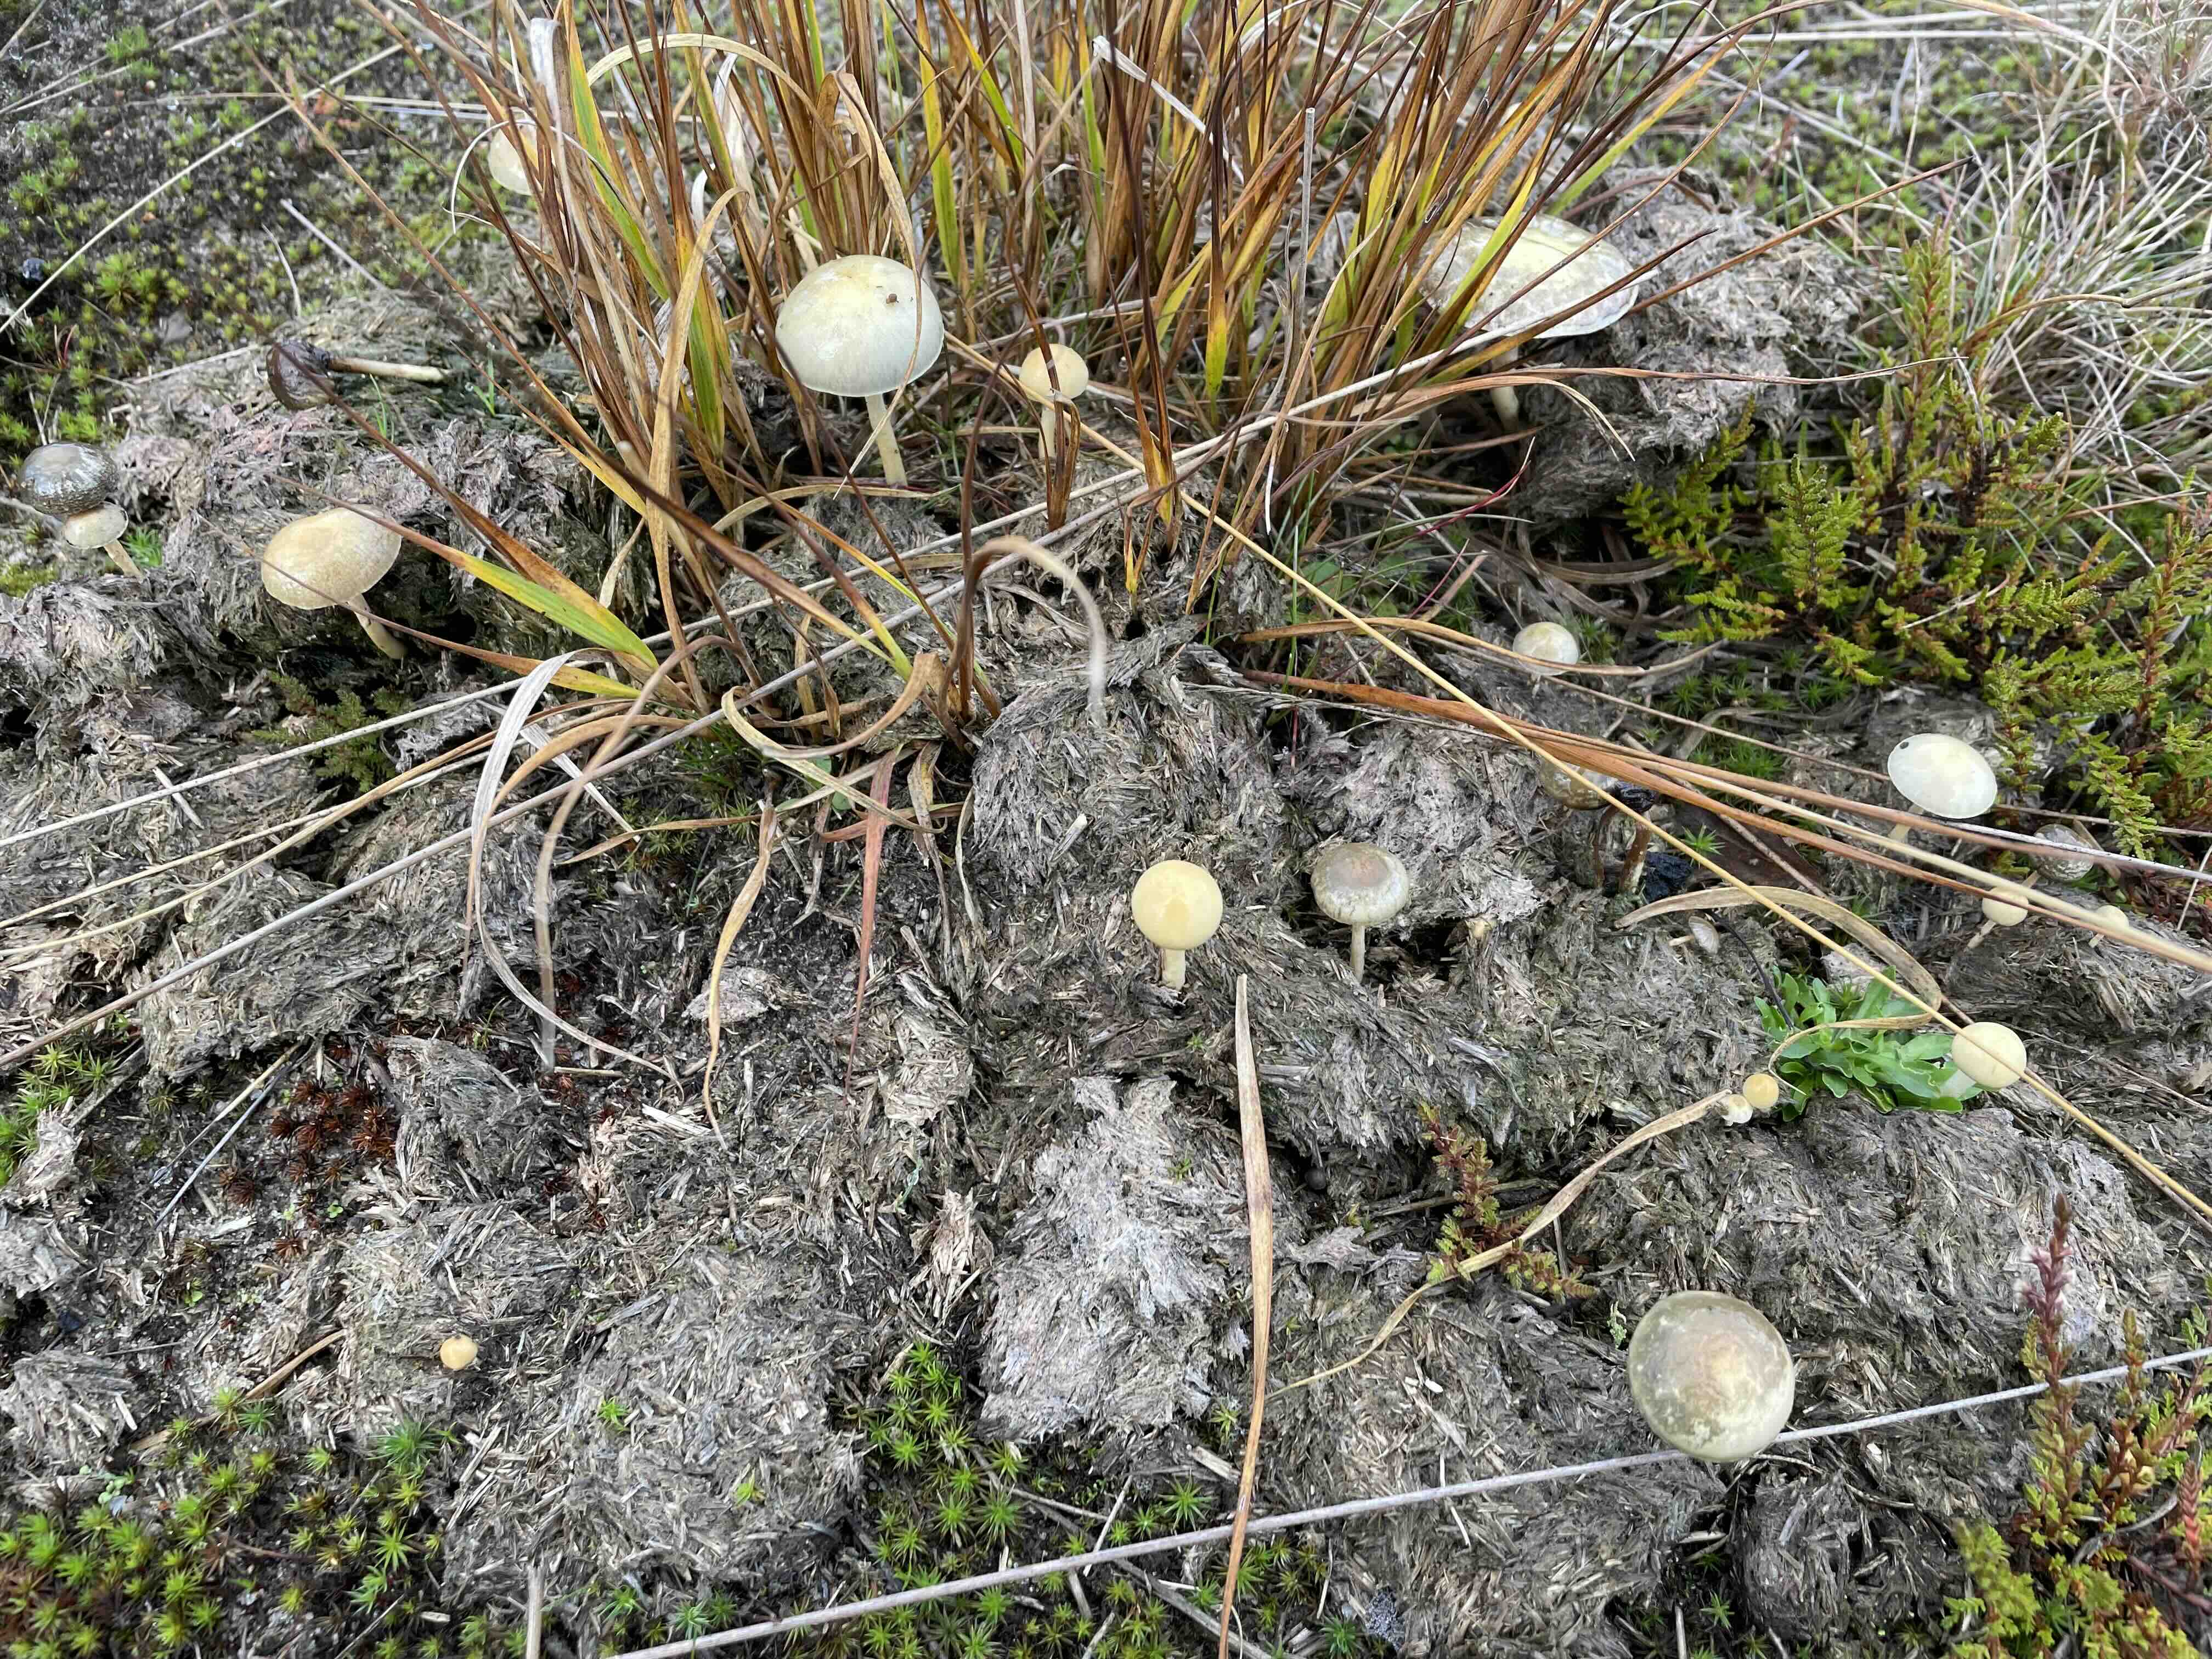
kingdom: Fungi
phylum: Basidiomycota
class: Agaricomycetes
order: Agaricales
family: Strophariaceae
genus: Protostropharia
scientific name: Protostropharia semiglobata
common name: halvkugleformet bredblad
